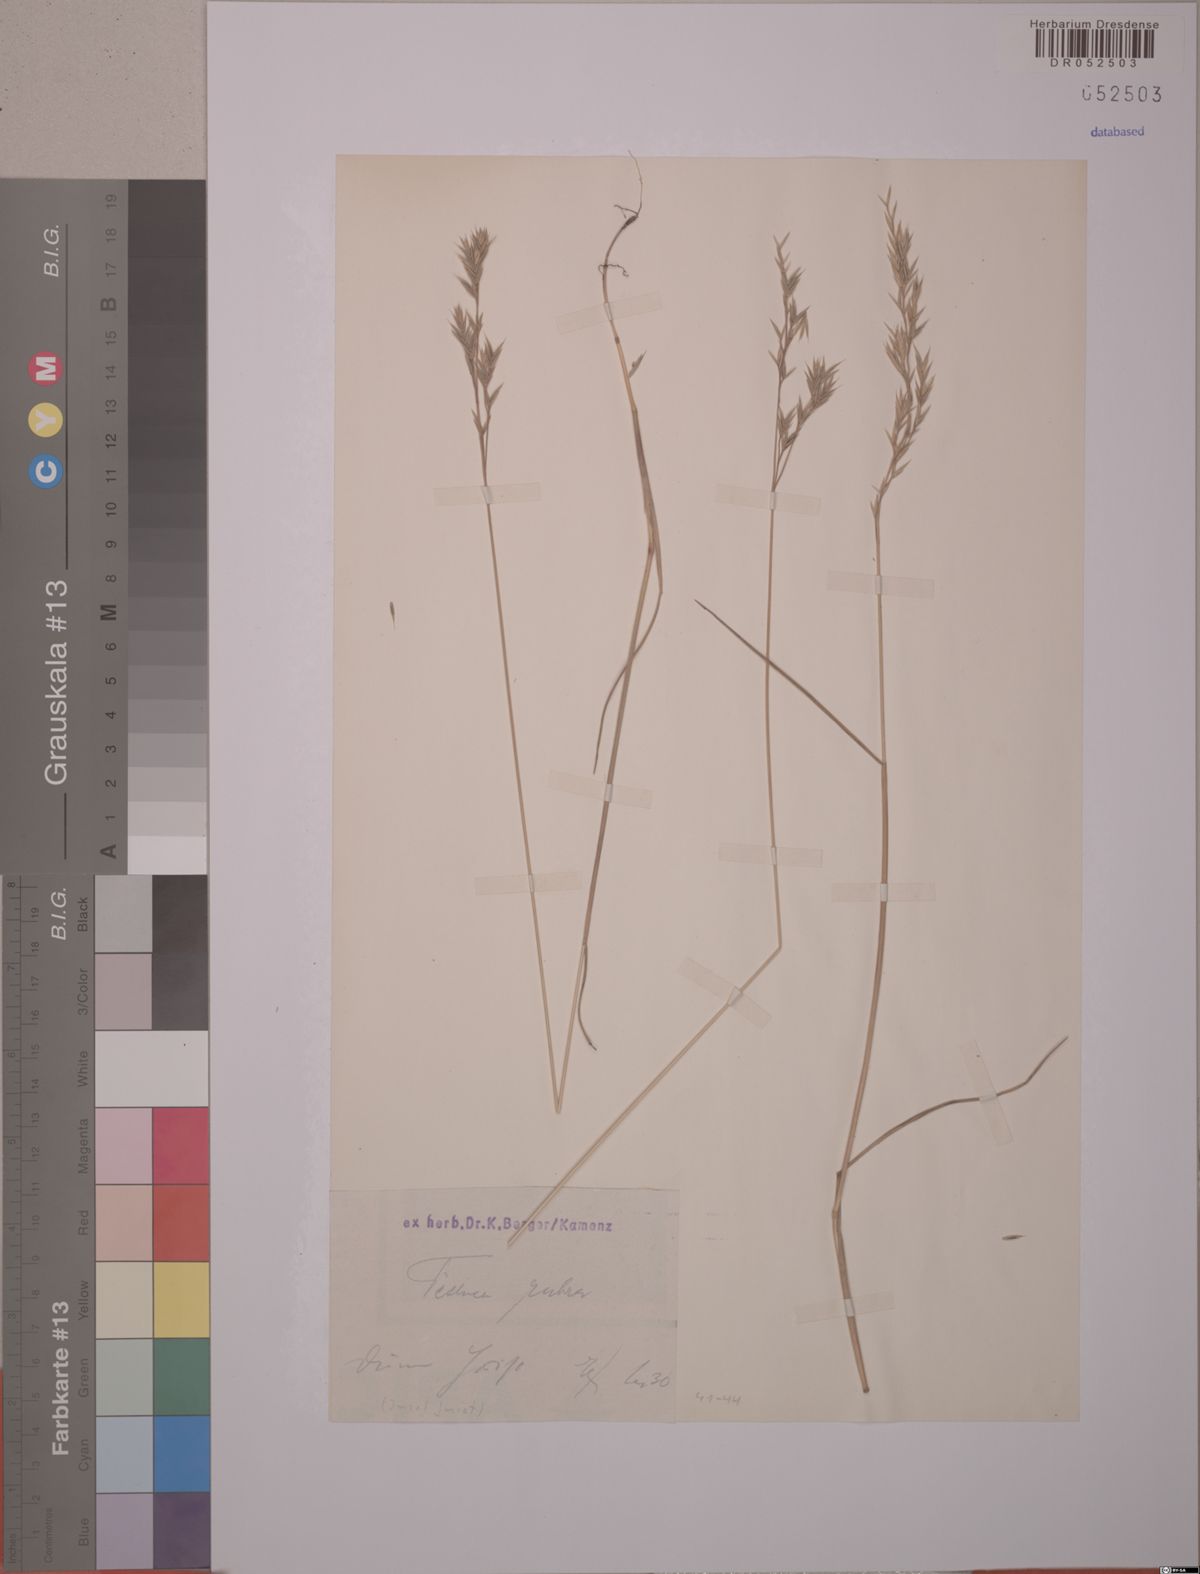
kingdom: Plantae
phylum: Tracheophyta
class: Liliopsida
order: Poales
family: Poaceae
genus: Festuca
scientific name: Festuca rubra
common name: Red fescue
